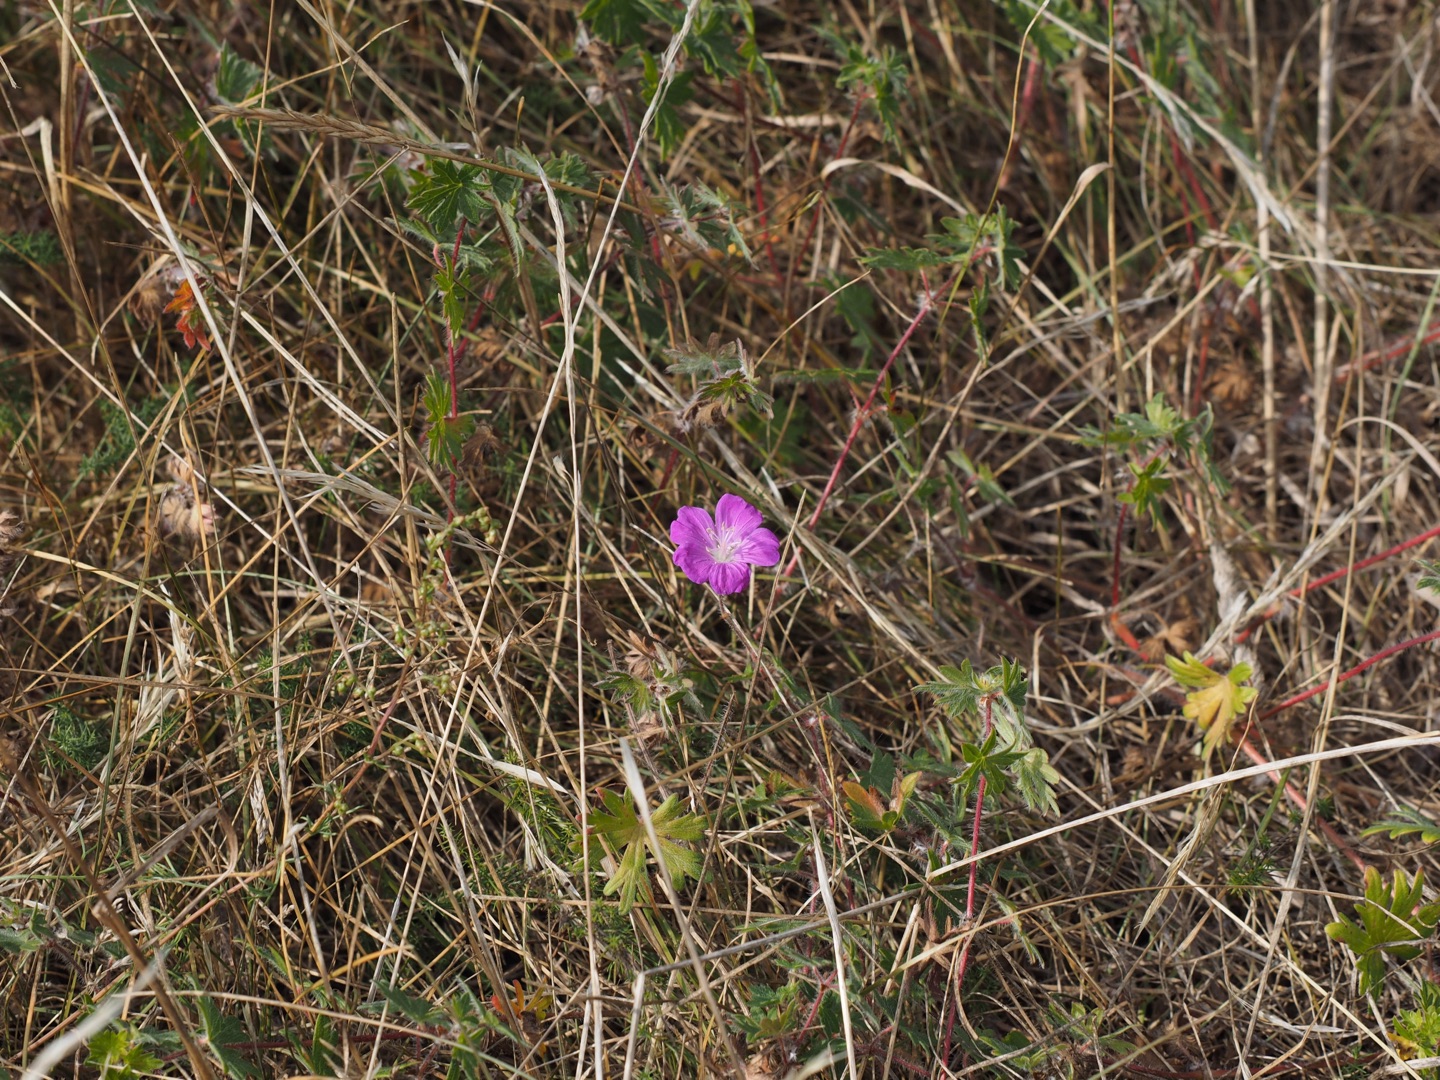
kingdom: Plantae
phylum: Tracheophyta
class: Magnoliopsida
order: Geraniales
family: Geraniaceae
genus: Geranium
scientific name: Geranium sanguineum
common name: Blodrød storkenæb
